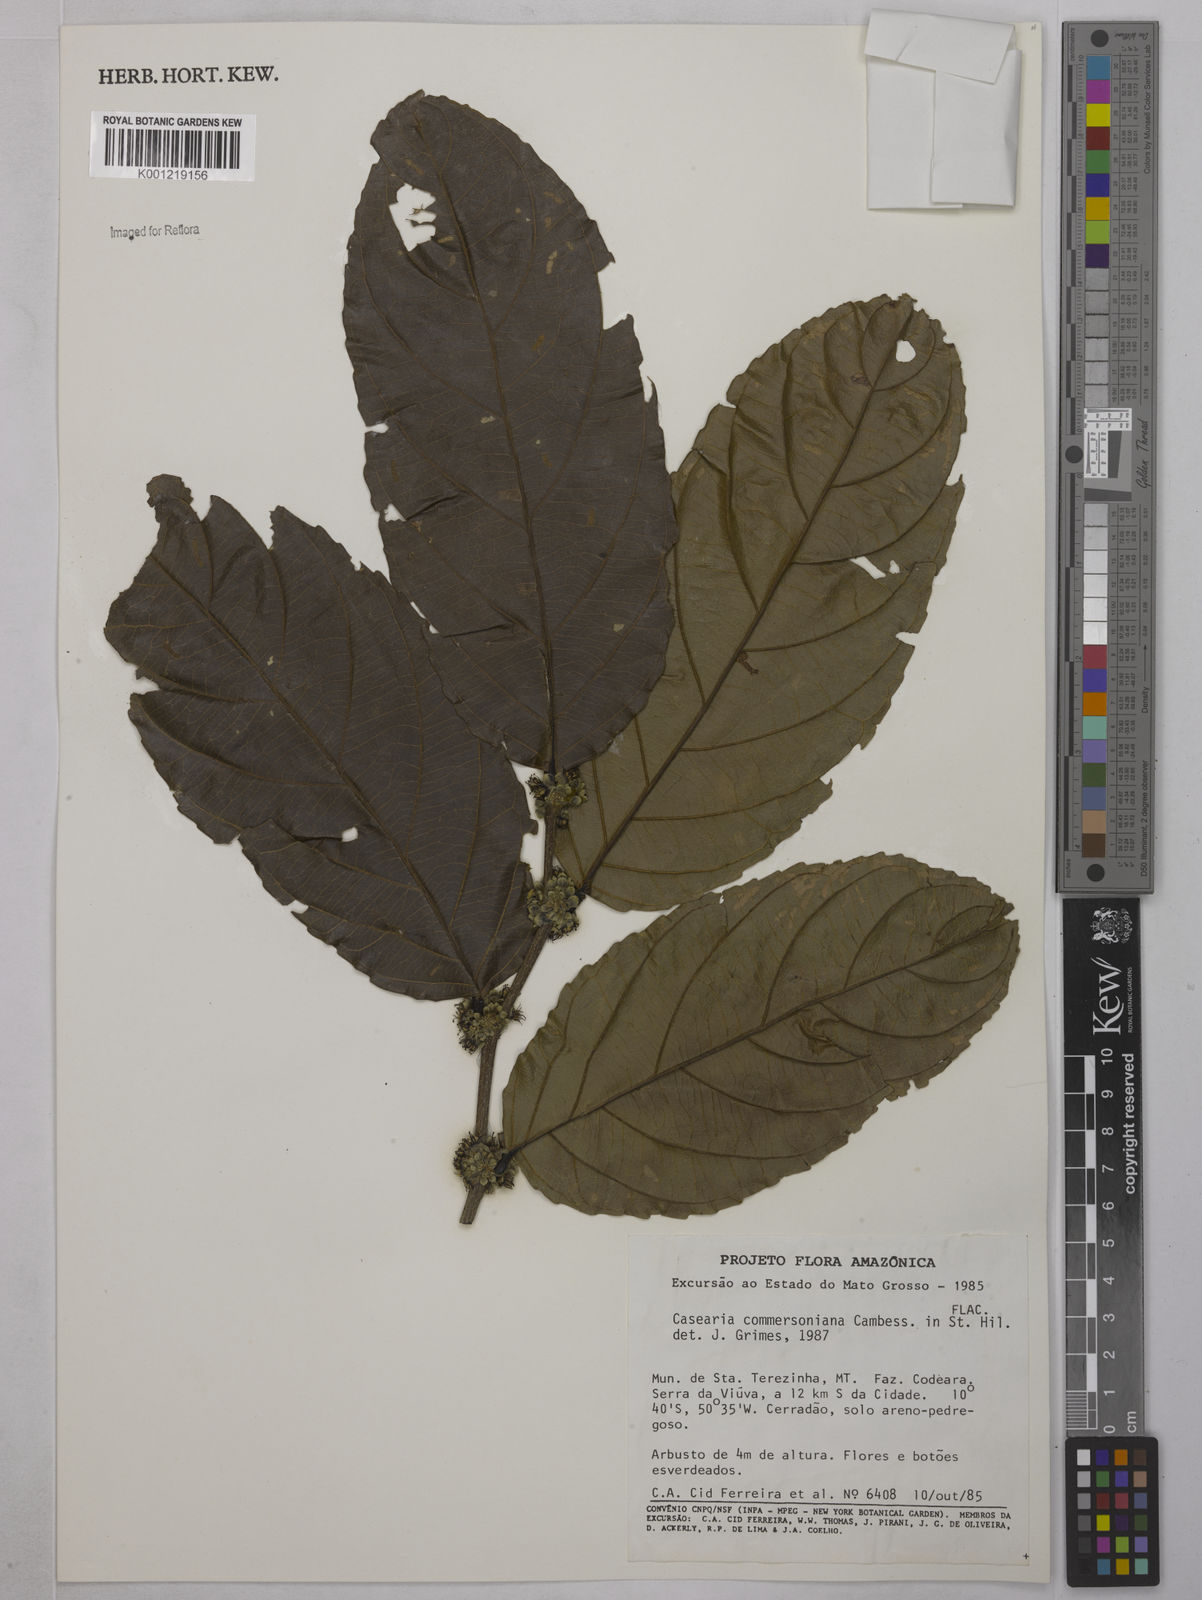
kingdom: Plantae
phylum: Tracheophyta
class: Magnoliopsida
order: Malpighiales
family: Salicaceae
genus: Piparea
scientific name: Piparea dentata
